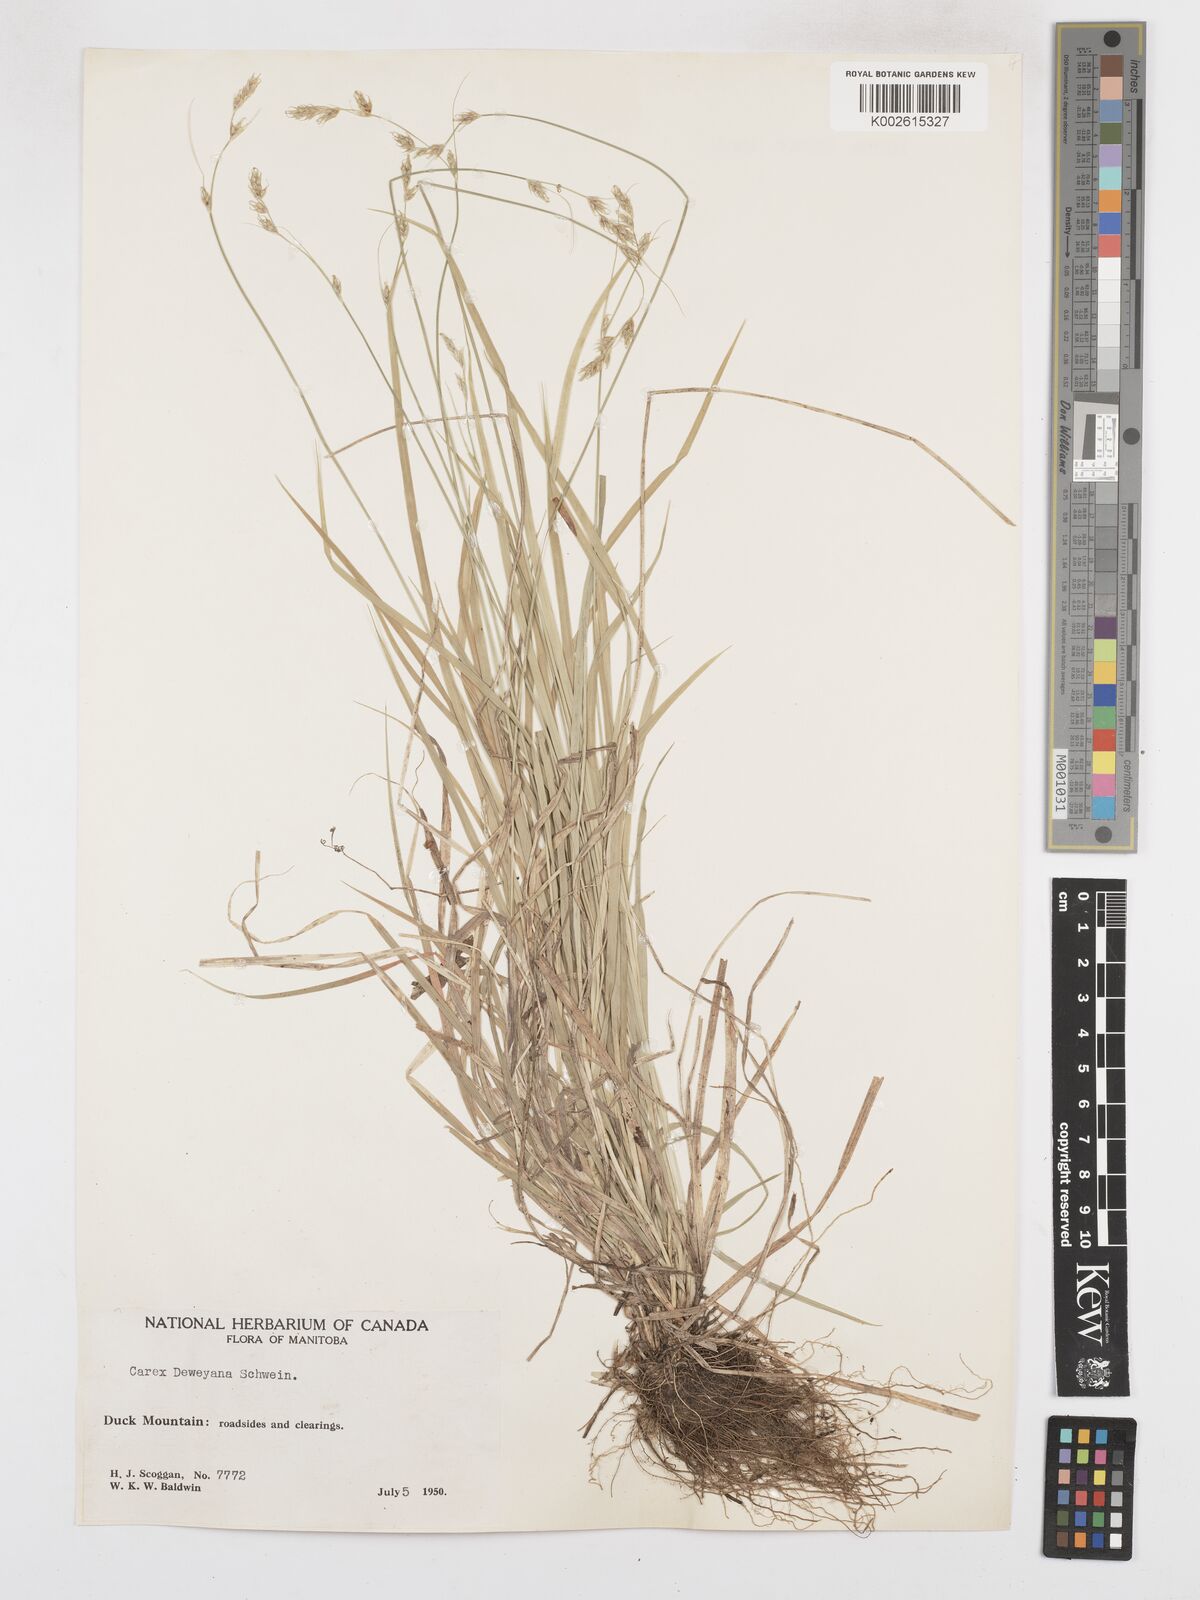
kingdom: Plantae
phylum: Tracheophyta
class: Liliopsida
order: Poales
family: Cyperaceae
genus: Carex
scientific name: Carex deweyana
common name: Dewey's sedge
